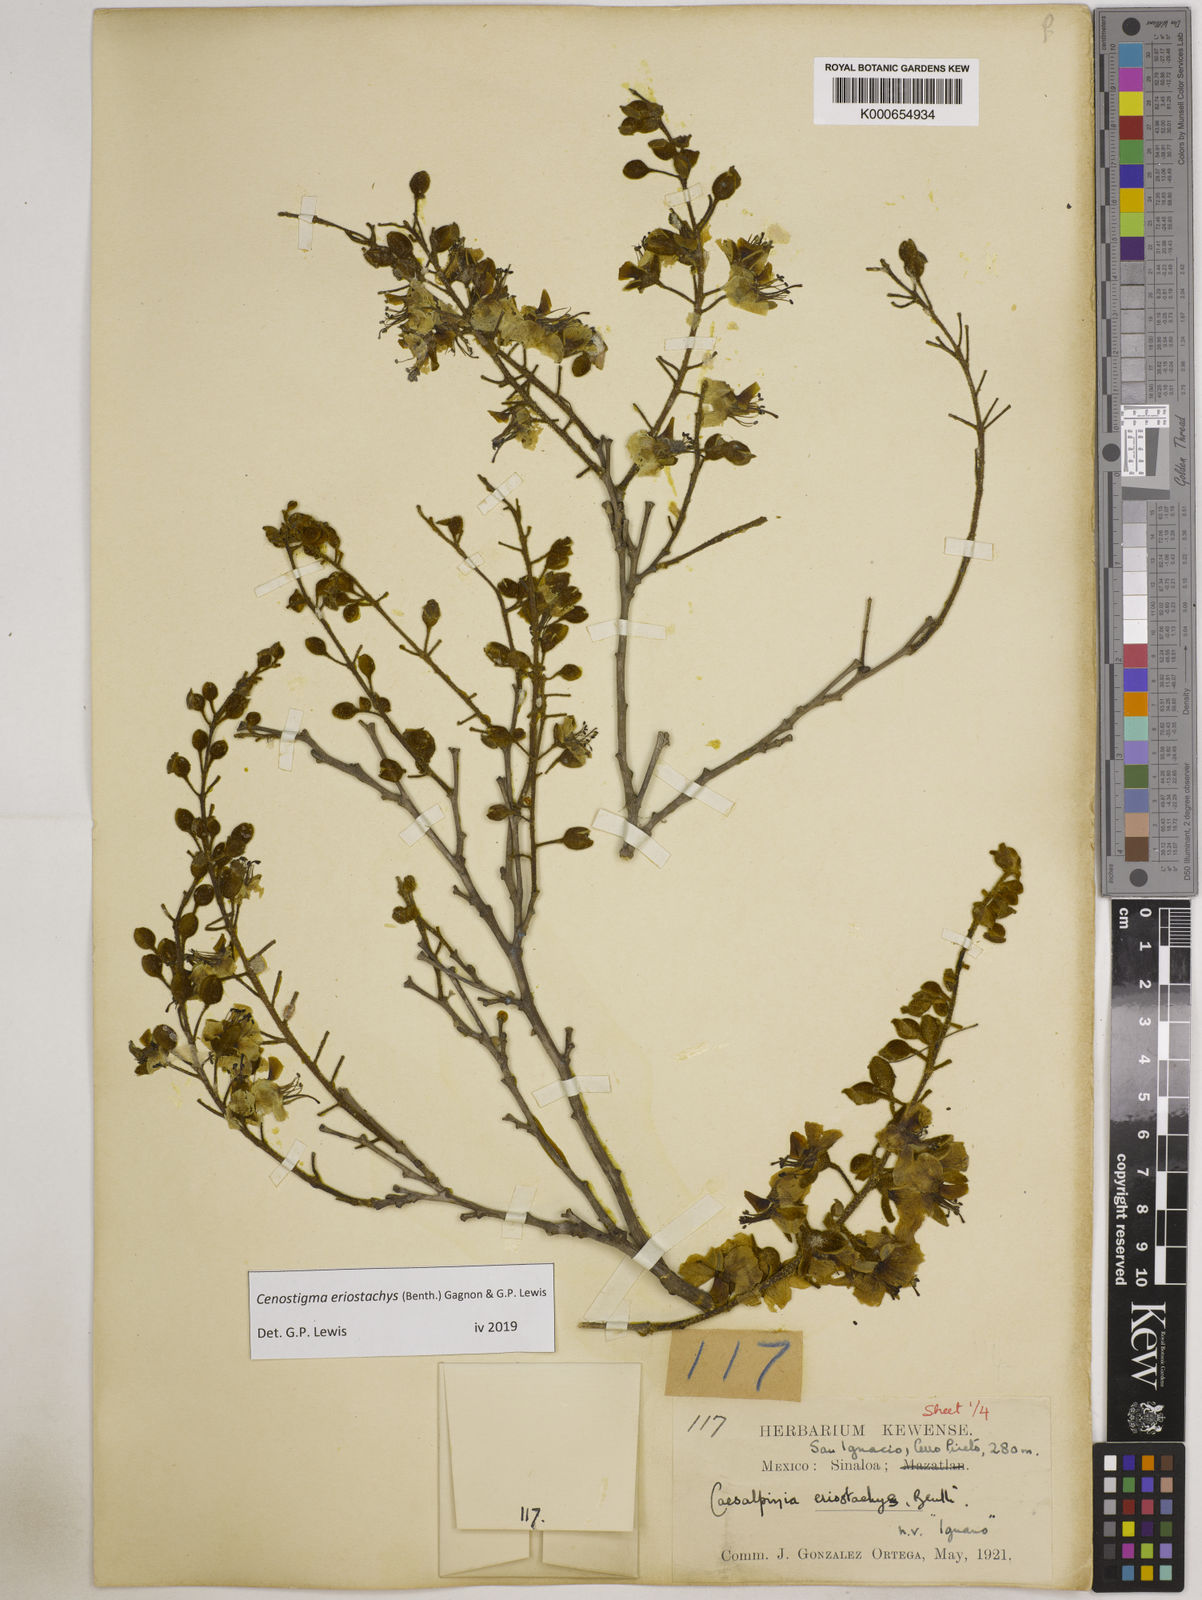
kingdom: Plantae
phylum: Tracheophyta
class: Magnoliopsida
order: Fabales
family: Fabaceae
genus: Cenostigma
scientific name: Cenostigma eriostachys
